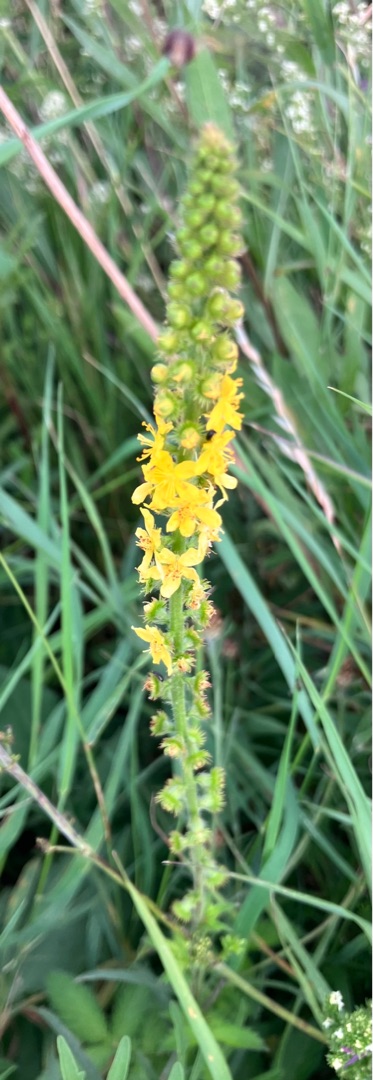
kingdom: Plantae
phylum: Tracheophyta
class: Magnoliopsida
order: Rosales
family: Rosaceae
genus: Agrimonia
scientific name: Agrimonia eupatoria
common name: Almindelig agermåne
